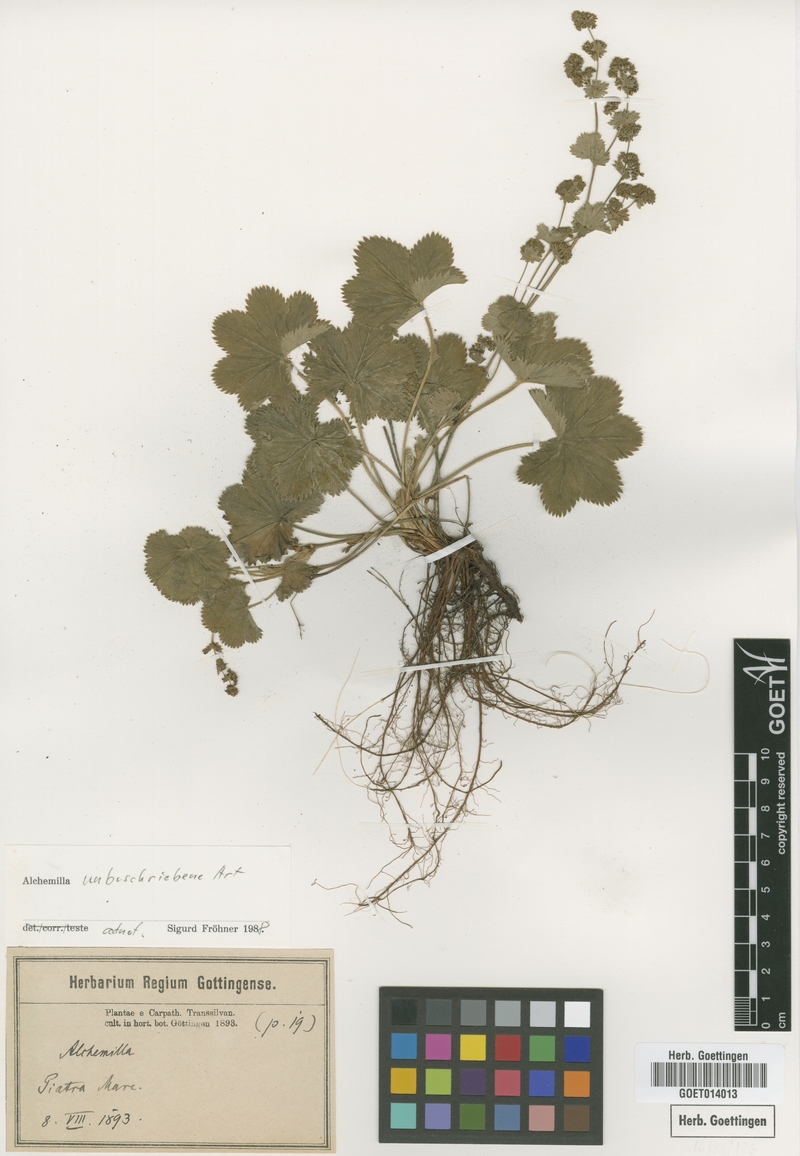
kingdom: Plantae
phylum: Tracheophyta
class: Magnoliopsida
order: Rosales
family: Rosaceae
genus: Alchemilla
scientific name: Alchemilla
